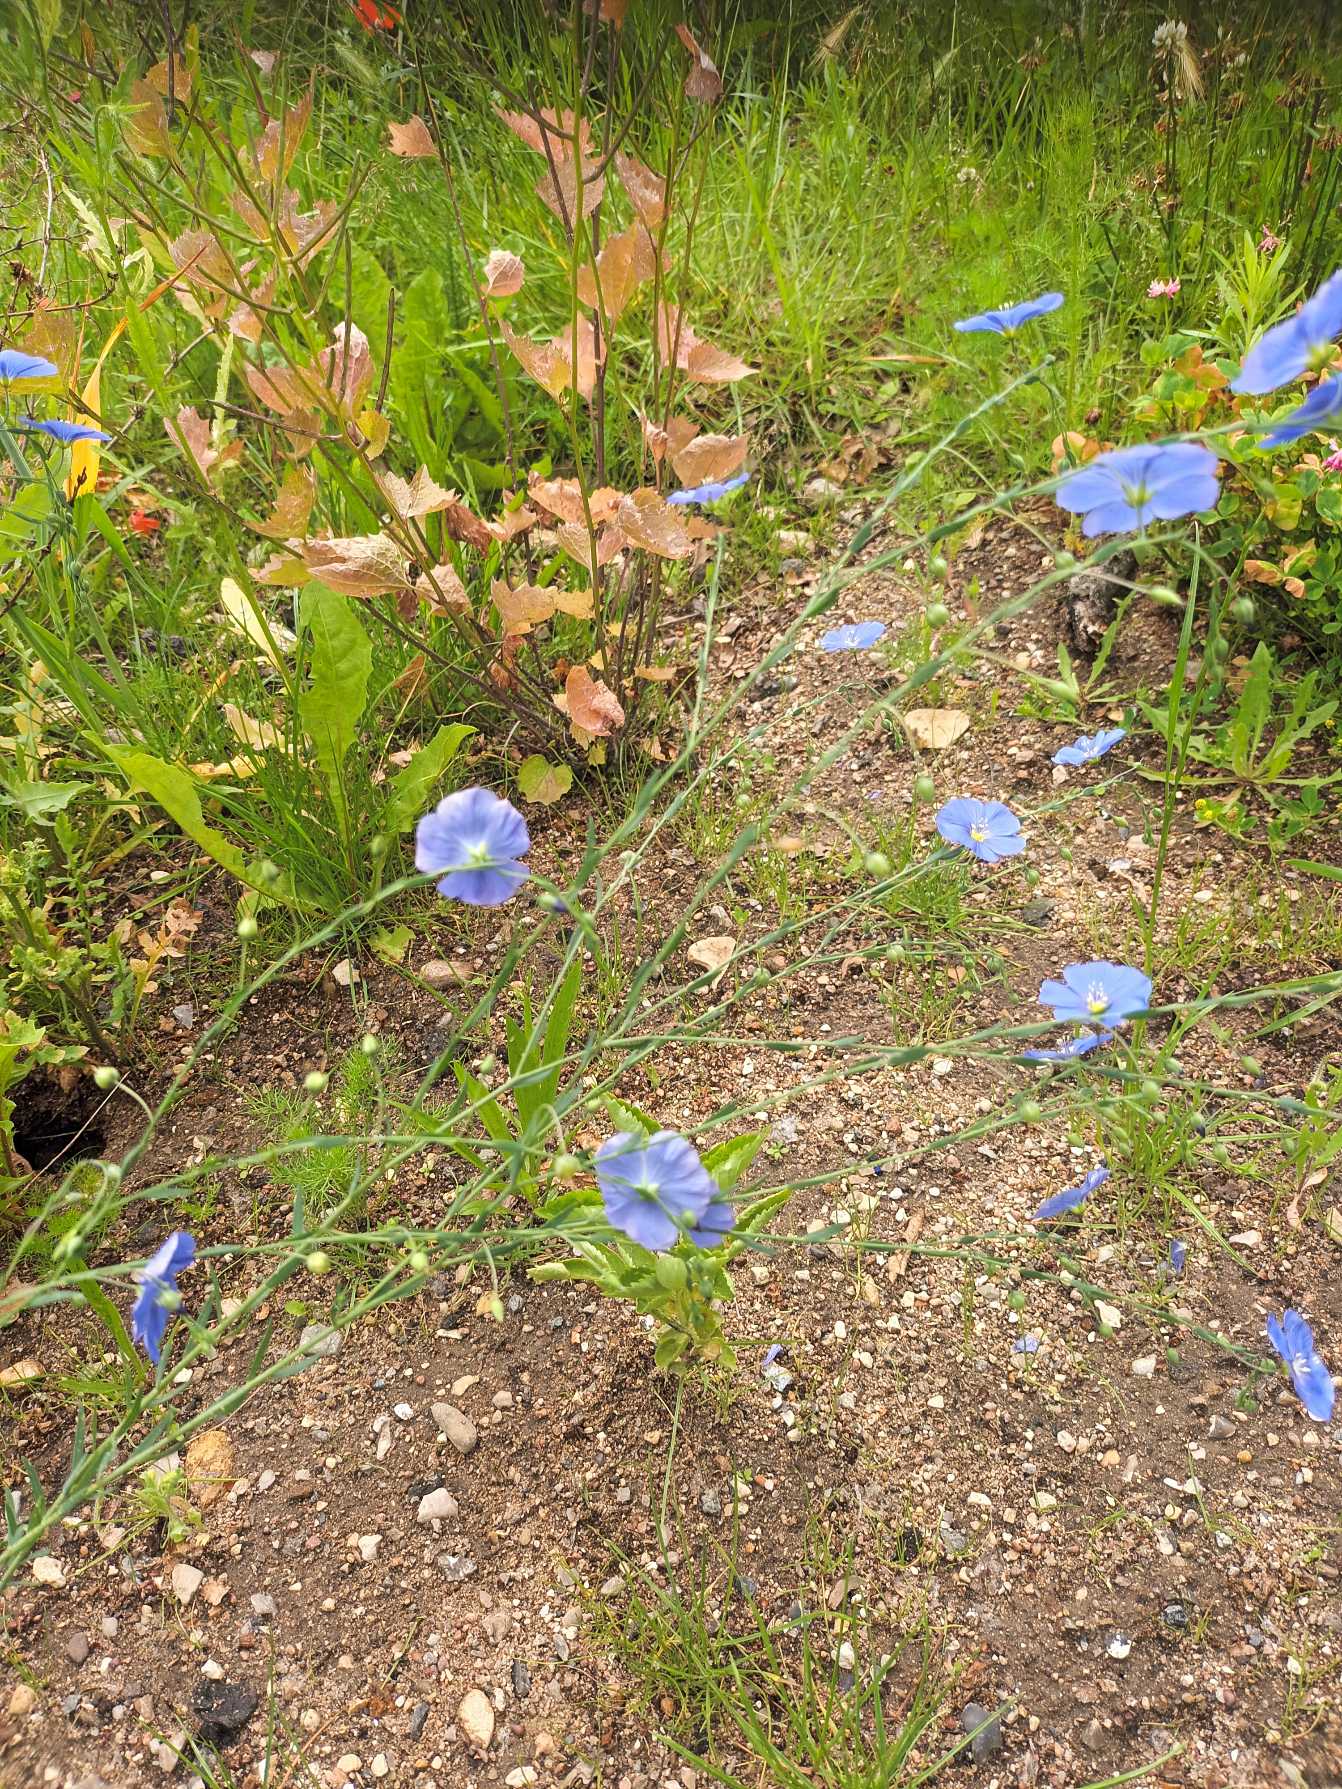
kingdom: Plantae
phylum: Tracheophyta
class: Magnoliopsida
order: Malpighiales
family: Linaceae
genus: Linum
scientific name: Linum austriacum
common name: Østrigsk hør
